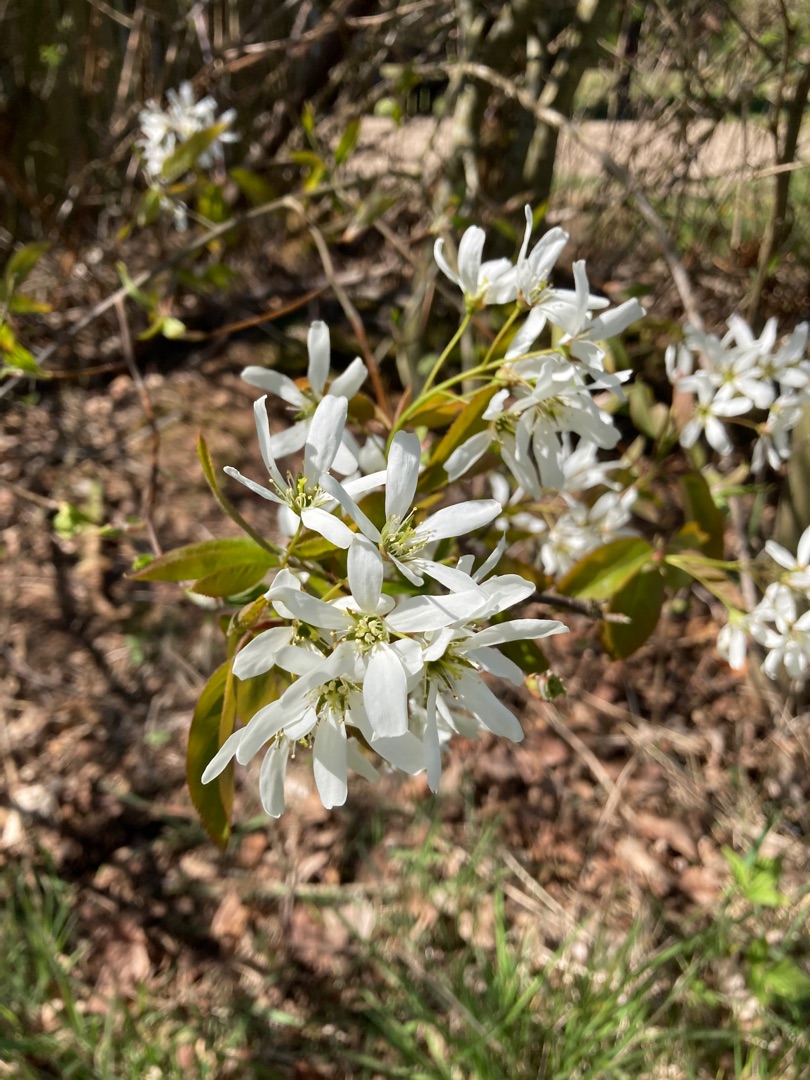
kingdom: Plantae
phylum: Tracheophyta
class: Magnoliopsida
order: Rosales
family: Rosaceae
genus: Amelanchier
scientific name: Amelanchier lamarckii
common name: Bærmispel
